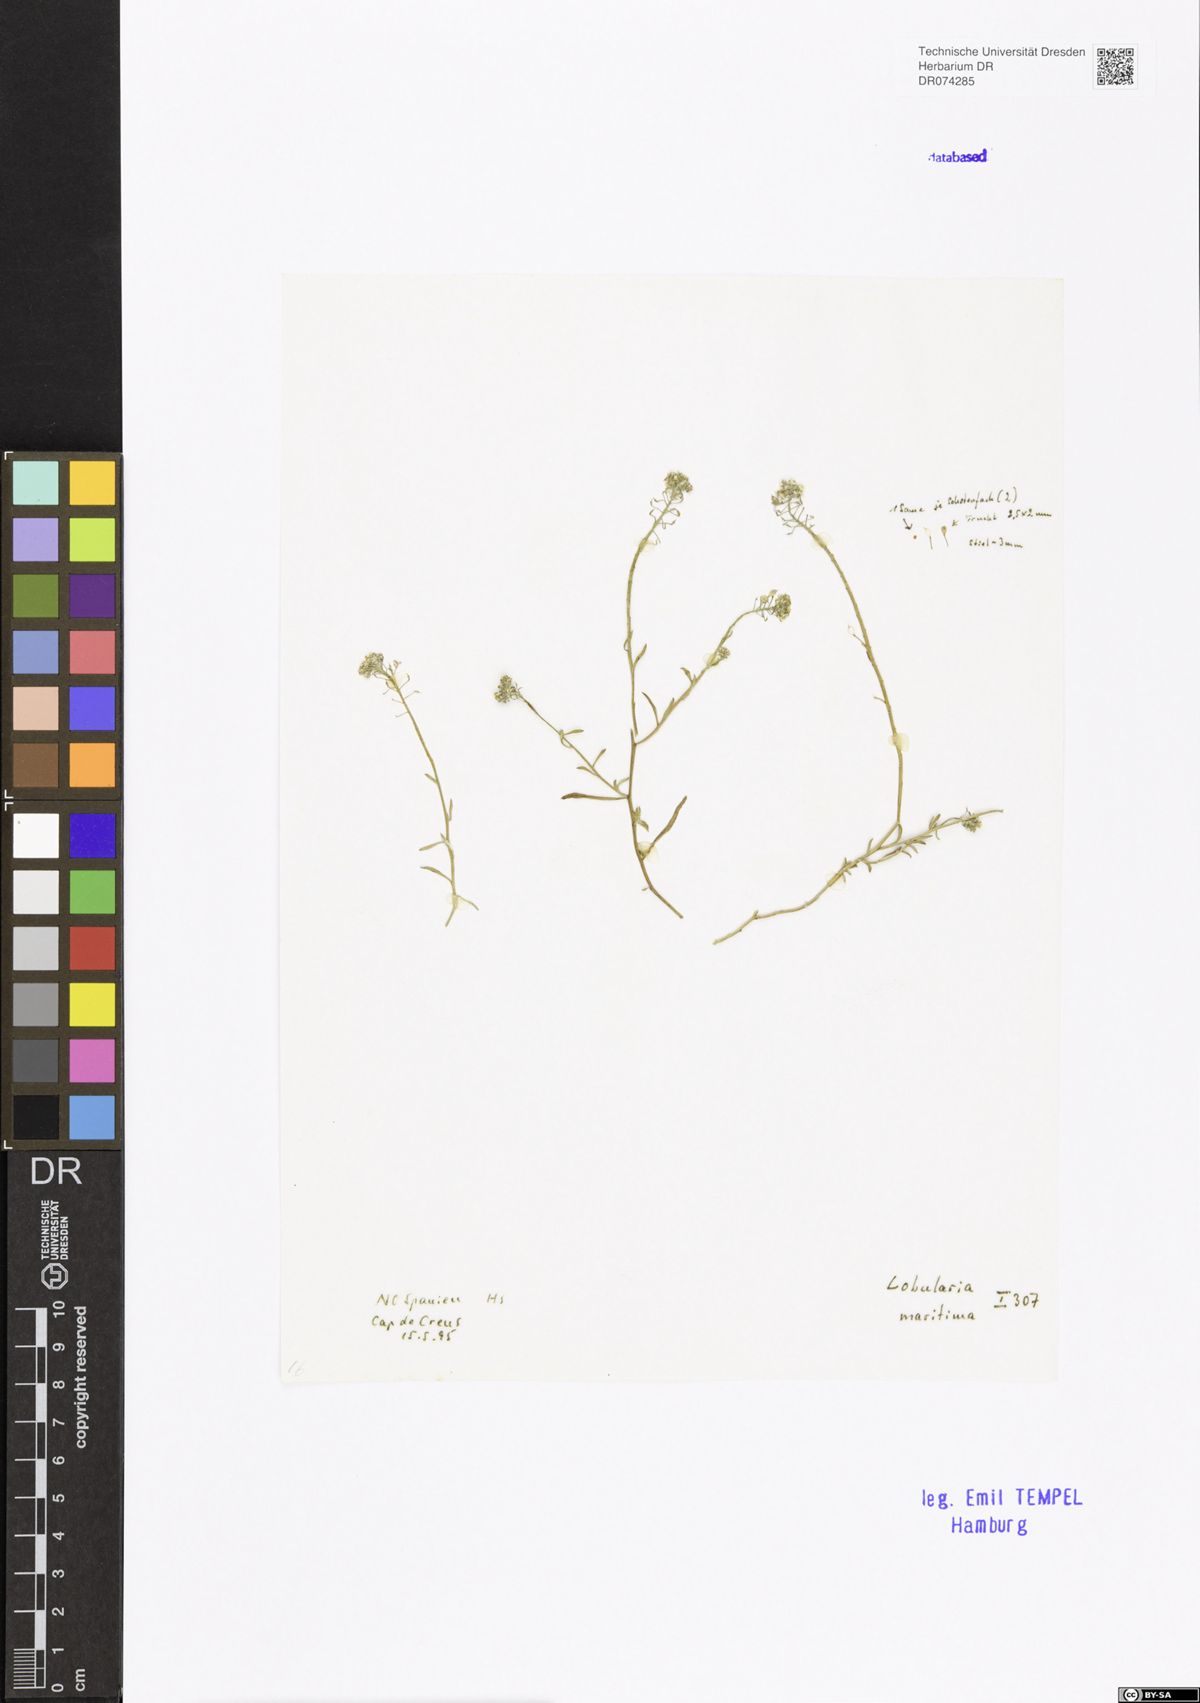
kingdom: Plantae
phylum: Tracheophyta
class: Magnoliopsida
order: Brassicales
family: Brassicaceae
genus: Lobularia
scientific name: Lobularia maritima
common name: Sweet alison
